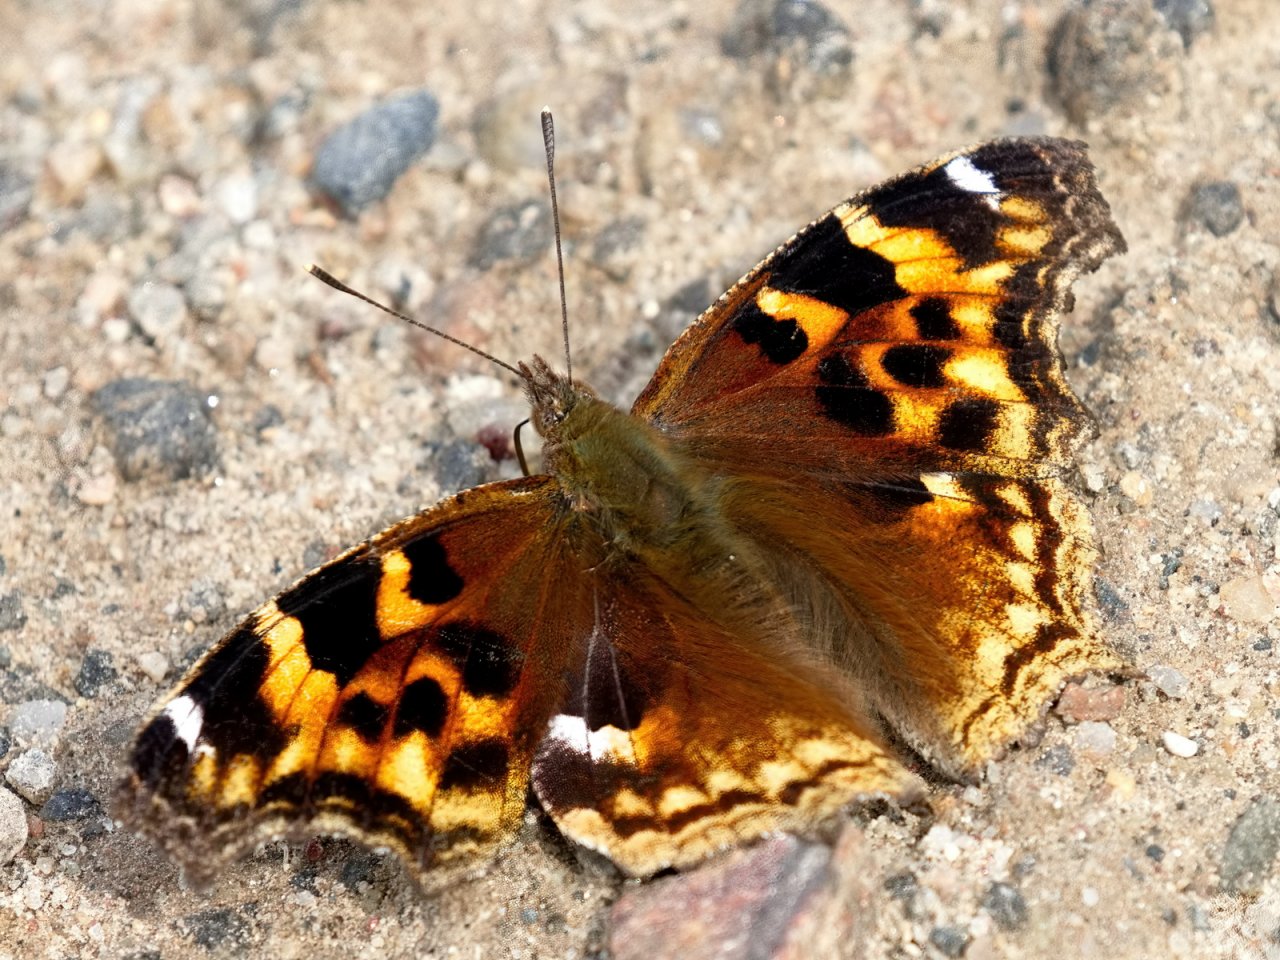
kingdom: Animalia
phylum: Arthropoda
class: Insecta
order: Lepidoptera
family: Nymphalidae
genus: Polygonia
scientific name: Polygonia vaualbum
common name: Compton Tortoiseshell
